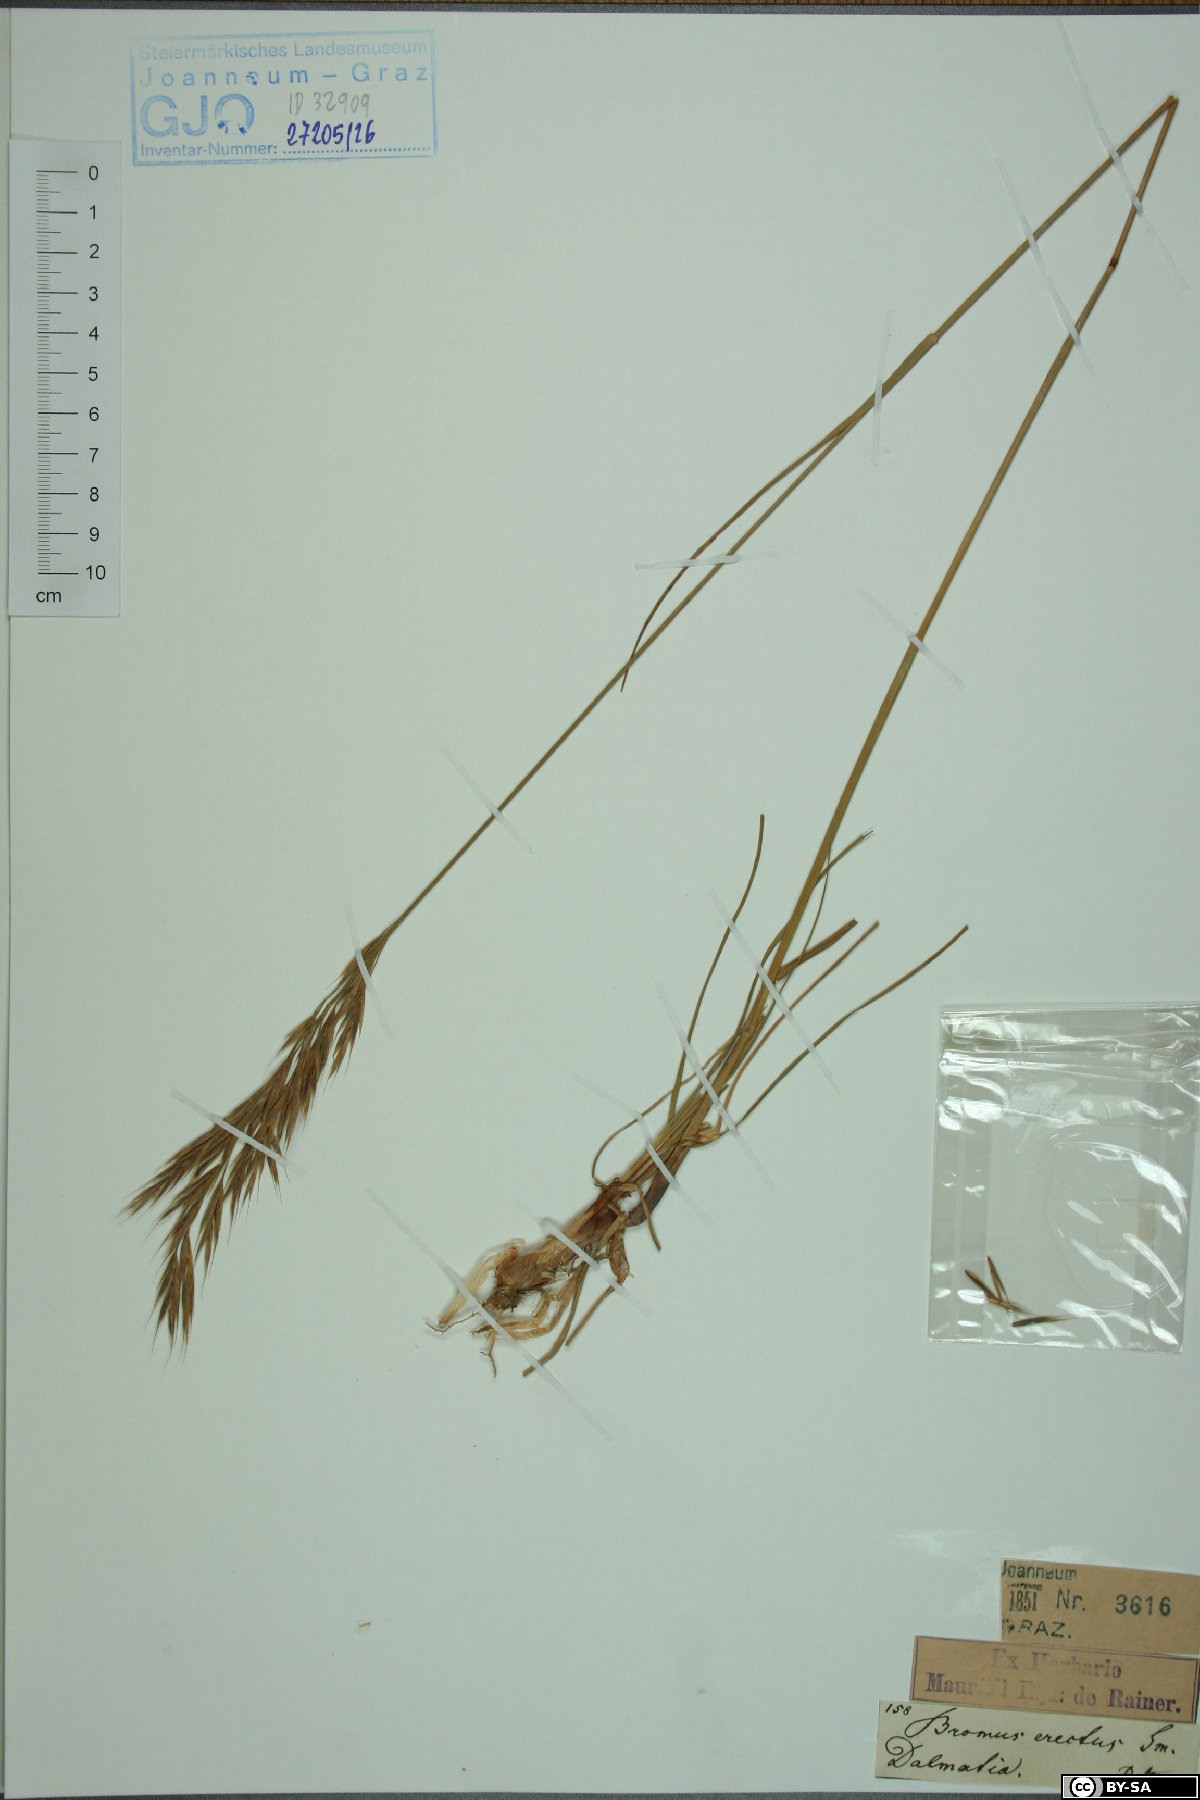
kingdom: Plantae
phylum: Tracheophyta
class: Liliopsida
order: Poales
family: Poaceae
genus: Bromus
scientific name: Bromus erectus
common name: Erect brome
